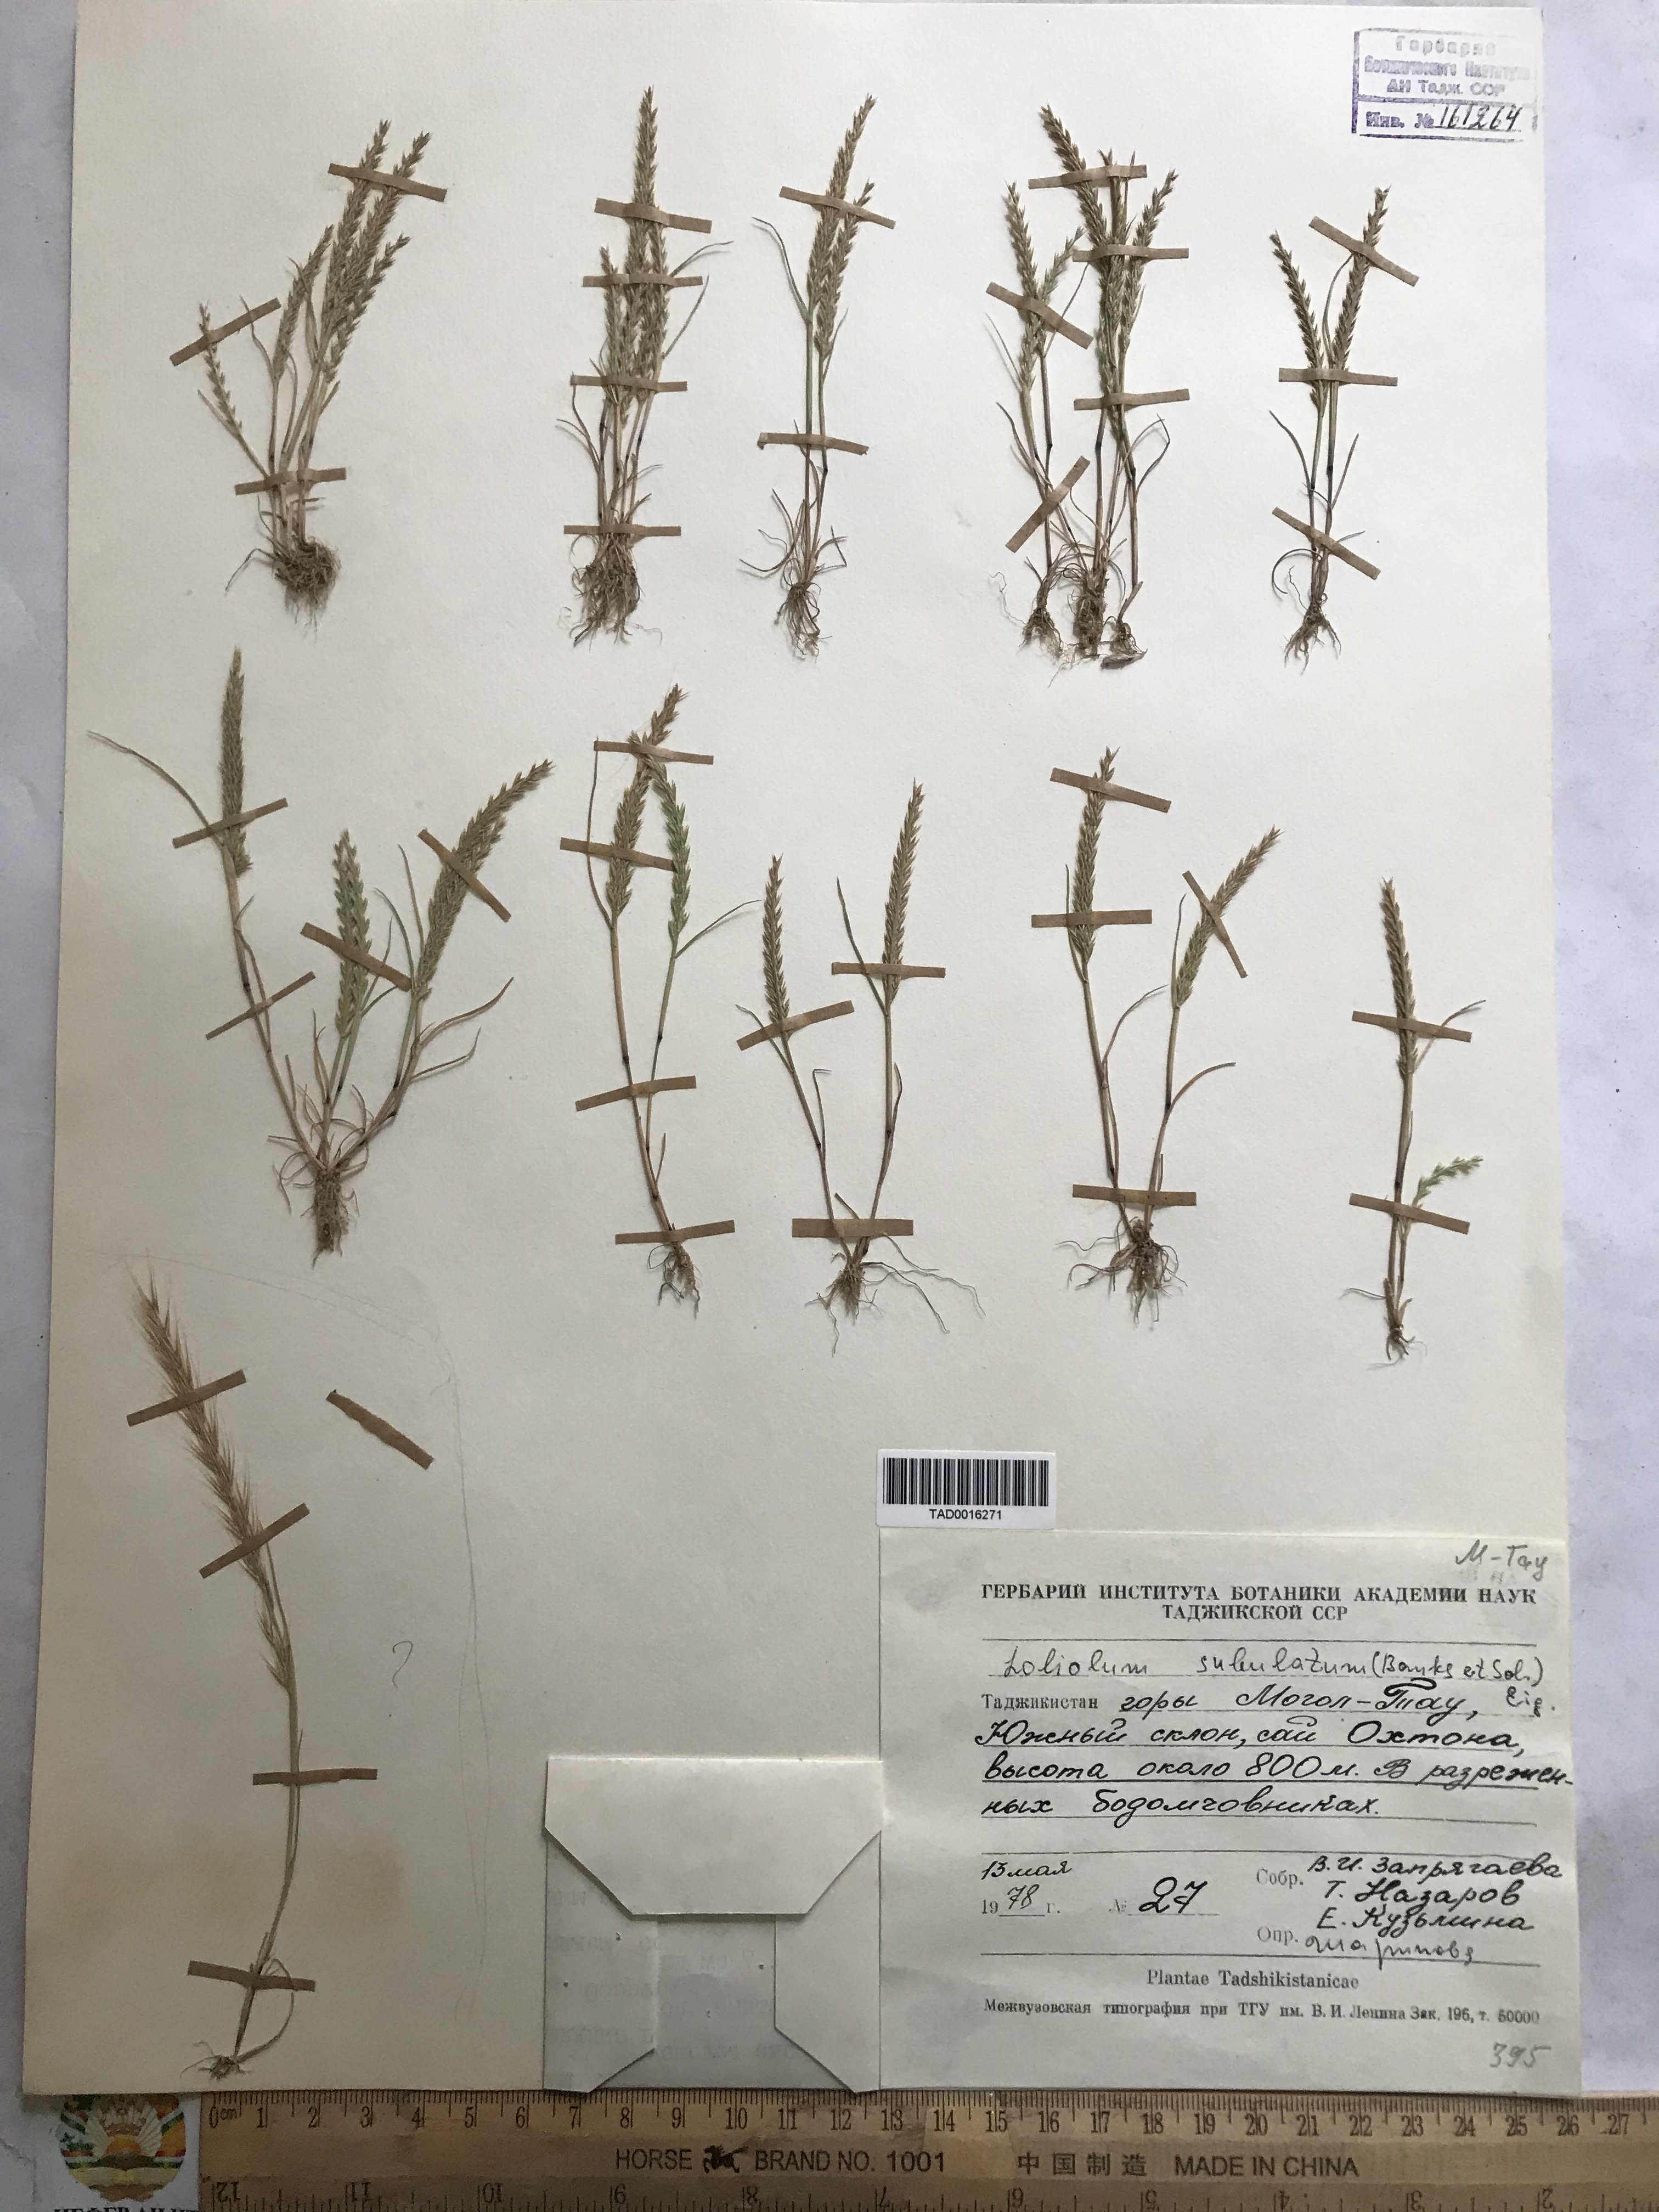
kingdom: Plantae
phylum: Tracheophyta
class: Liliopsida
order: Poales
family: Poaceae
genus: Festuca
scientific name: Festuca orientalis
